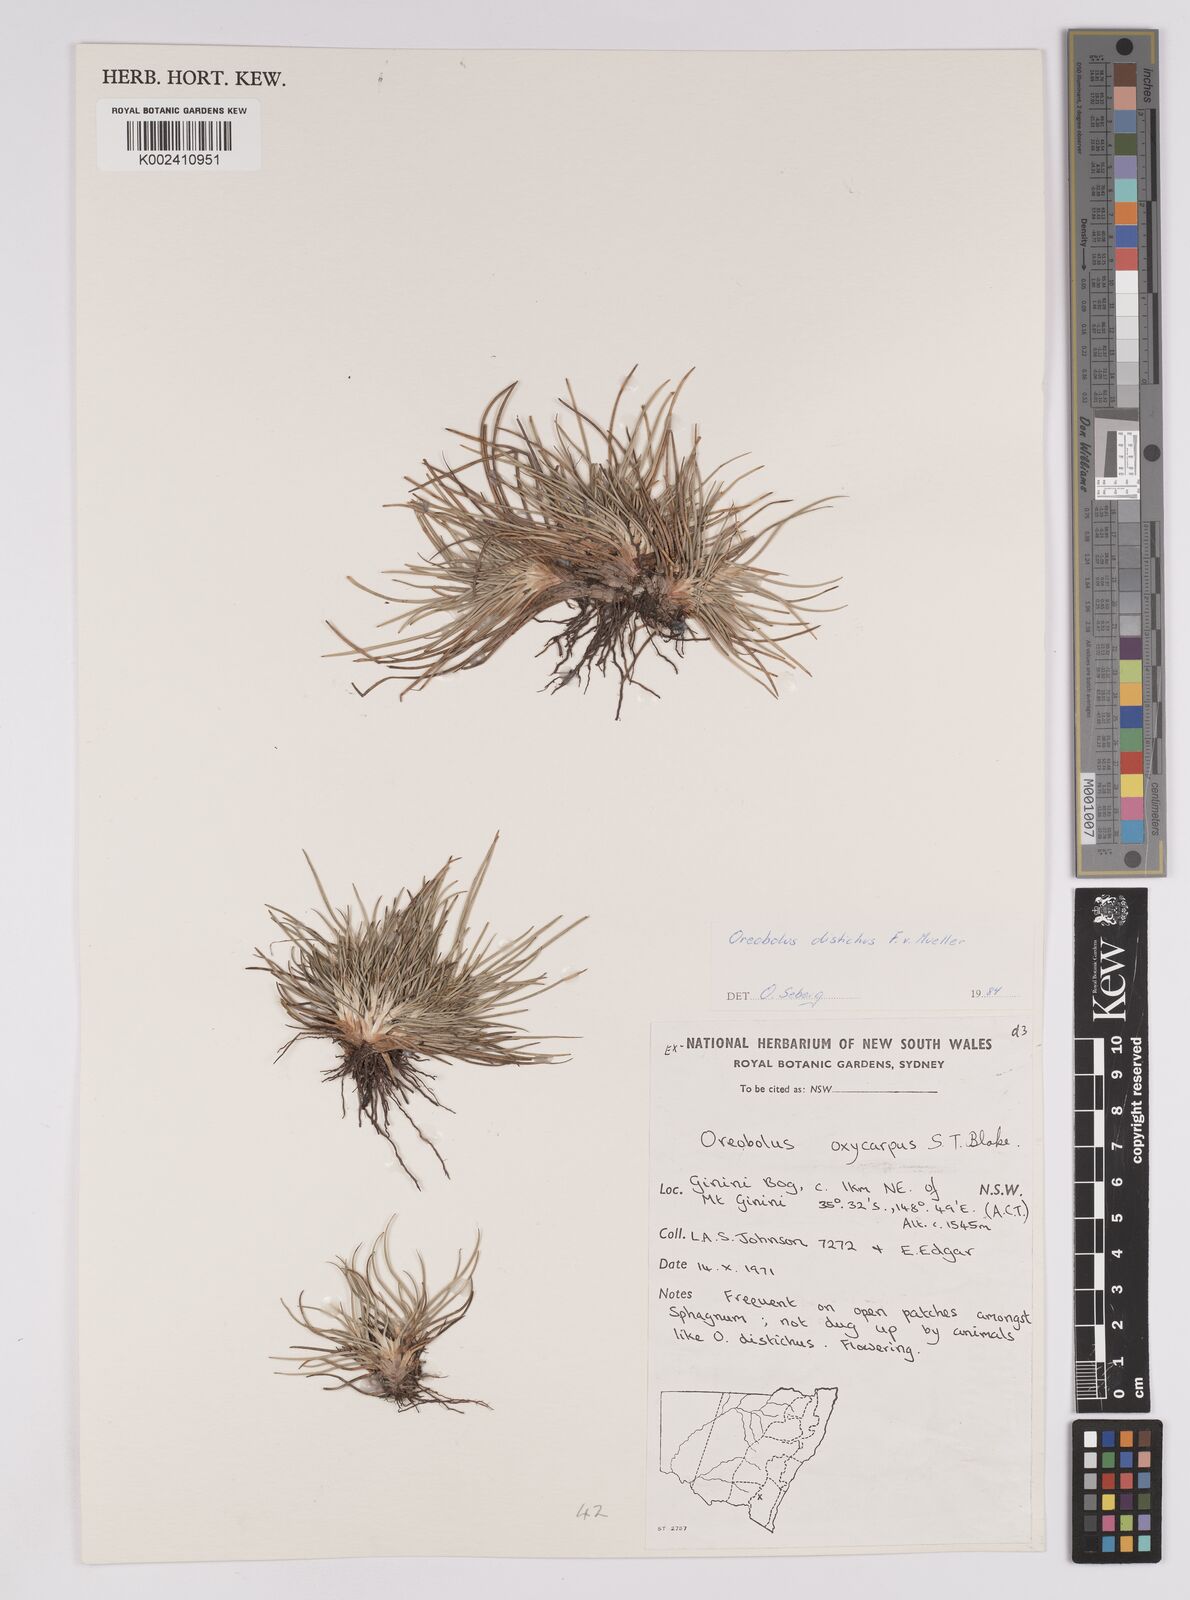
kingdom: Plantae
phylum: Tracheophyta
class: Liliopsida
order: Poales
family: Cyperaceae
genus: Oreobolus
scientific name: Oreobolus distichus
